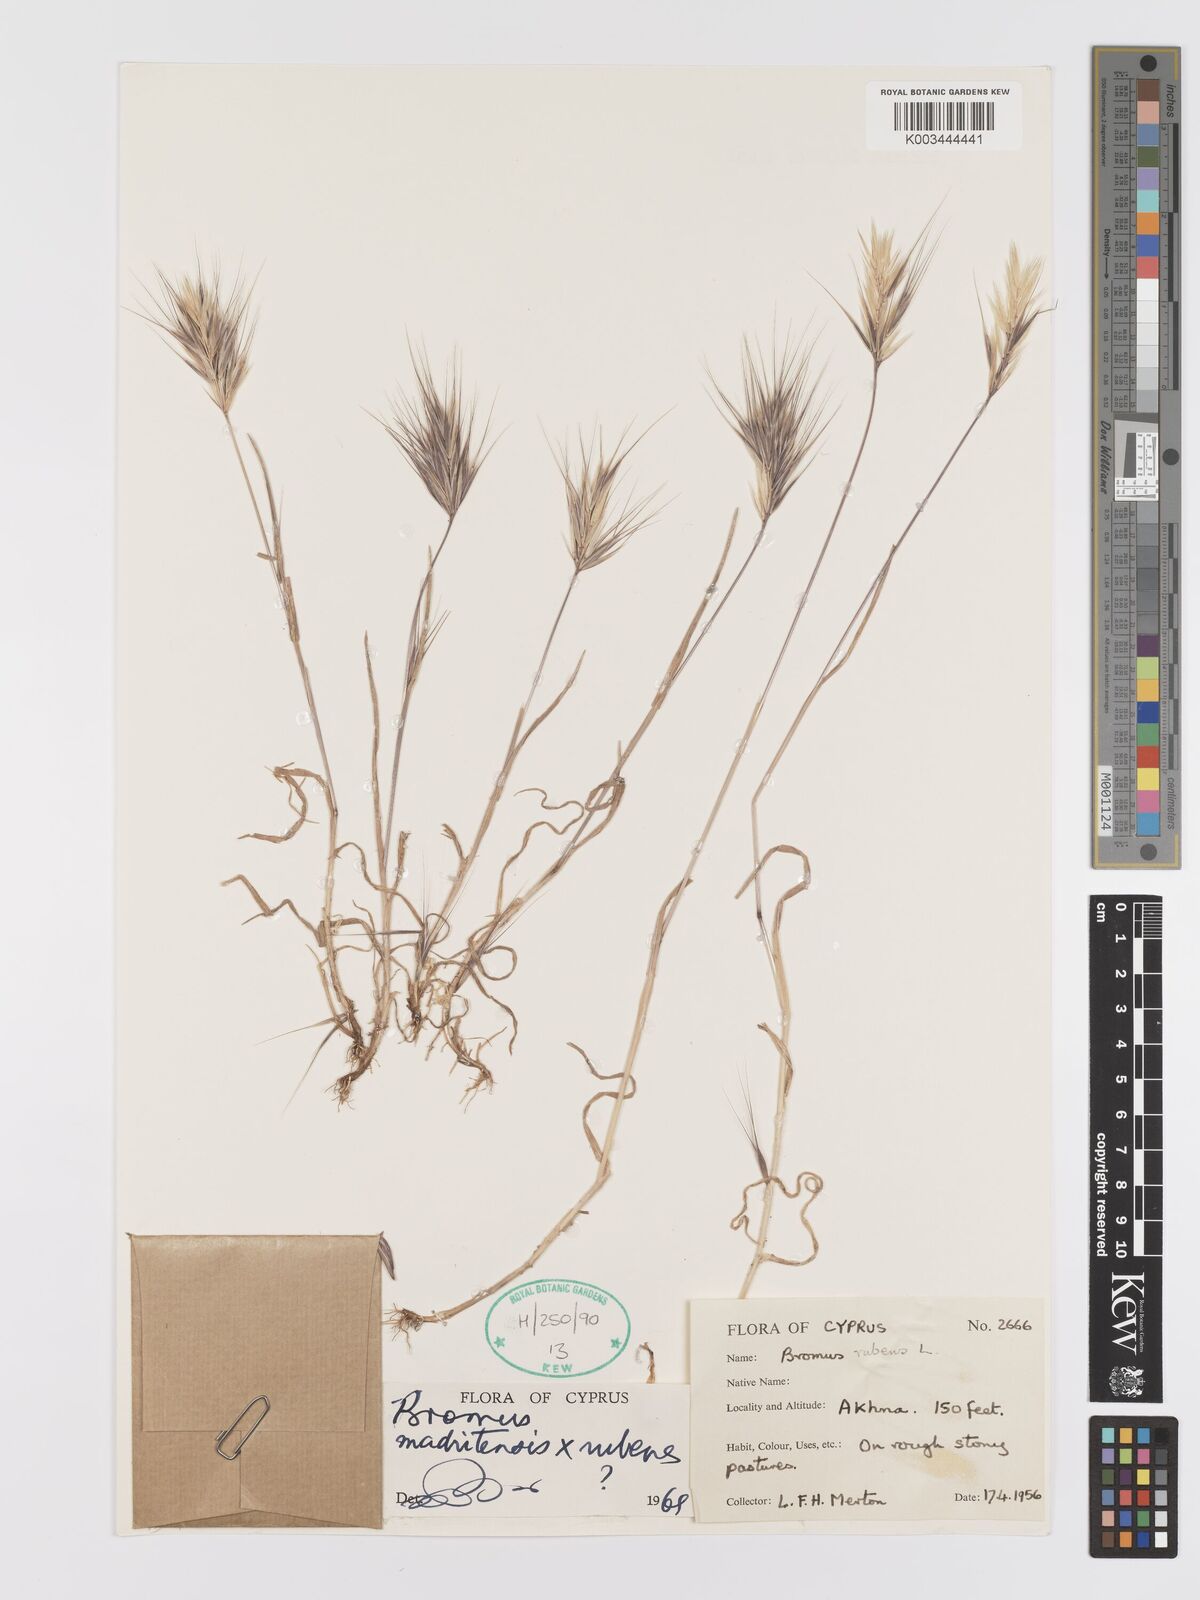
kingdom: Plantae
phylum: Tracheophyta
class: Liliopsida
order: Poales
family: Poaceae
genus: Bromus
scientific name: Bromus madritensis
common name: Compact brome
